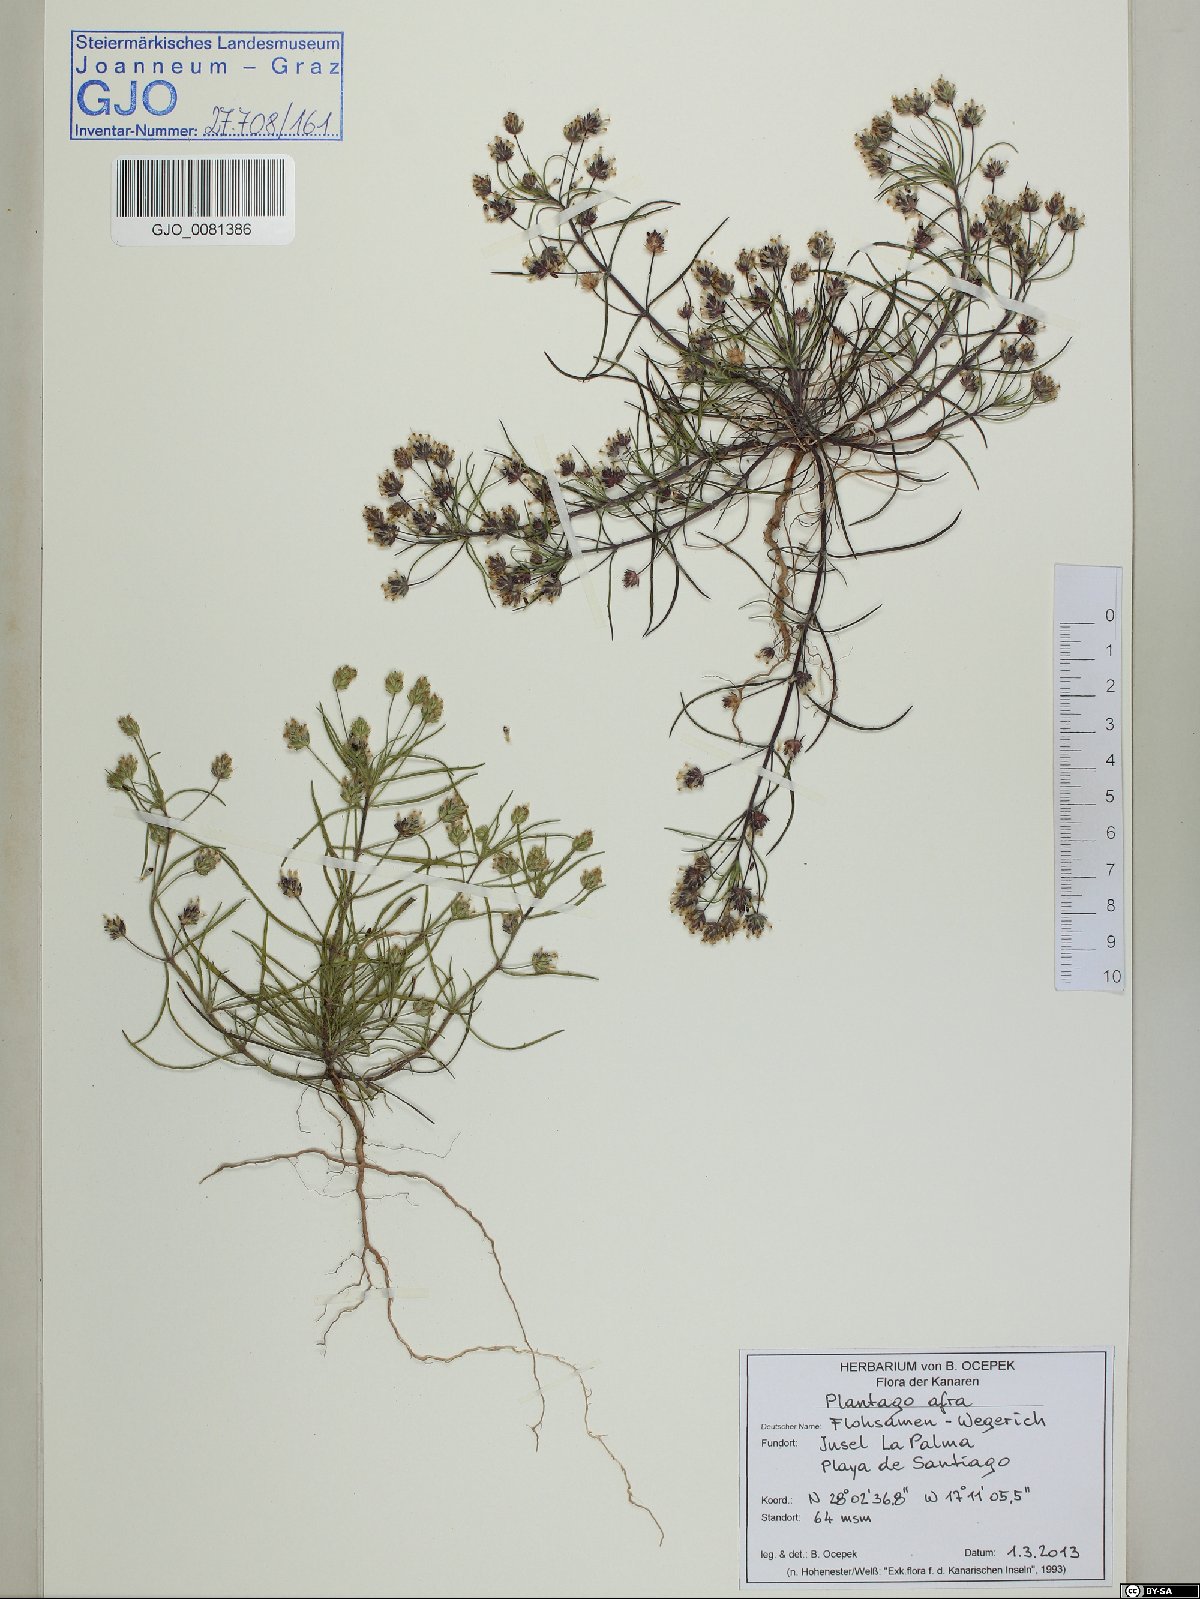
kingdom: Plantae
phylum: Tracheophyta
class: Magnoliopsida
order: Lamiales
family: Plantaginaceae
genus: Plantago
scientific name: Plantago afra
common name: Glandular plantain
